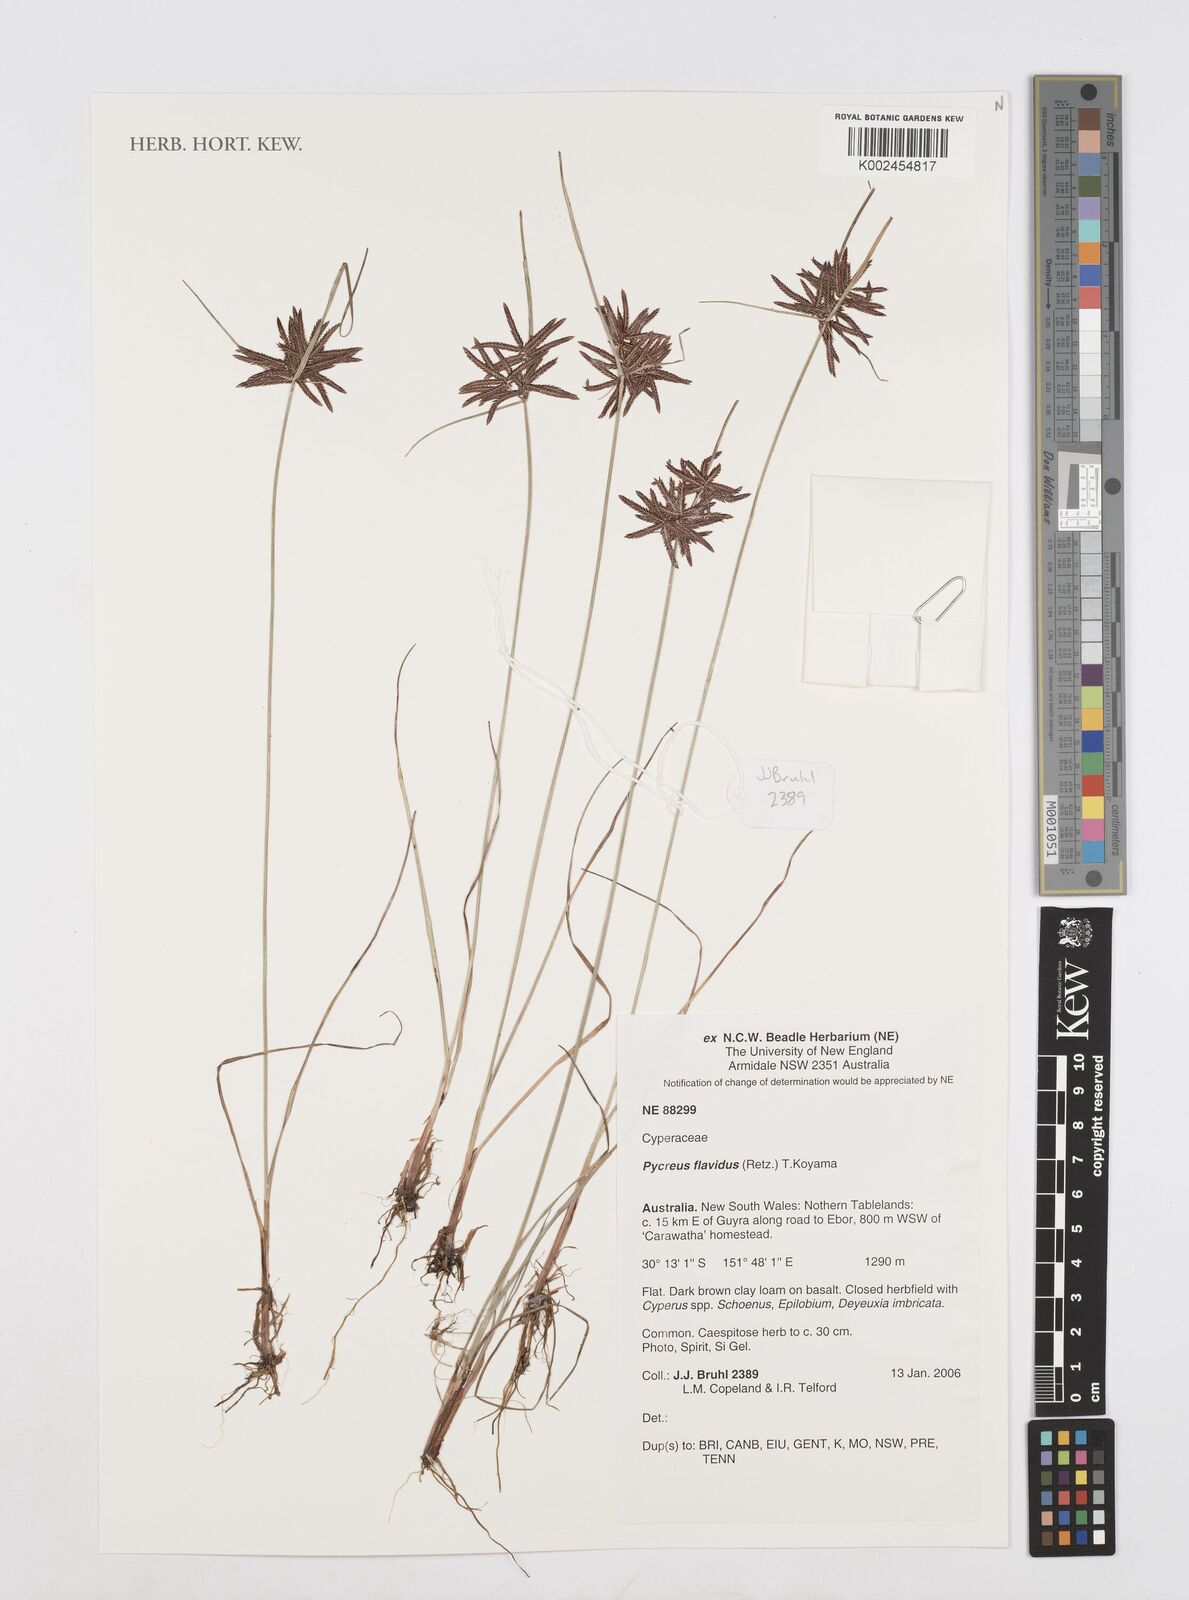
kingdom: Plantae
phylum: Tracheophyta
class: Liliopsida
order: Poales
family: Cyperaceae
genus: Cyperus
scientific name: Cyperus flavidus
